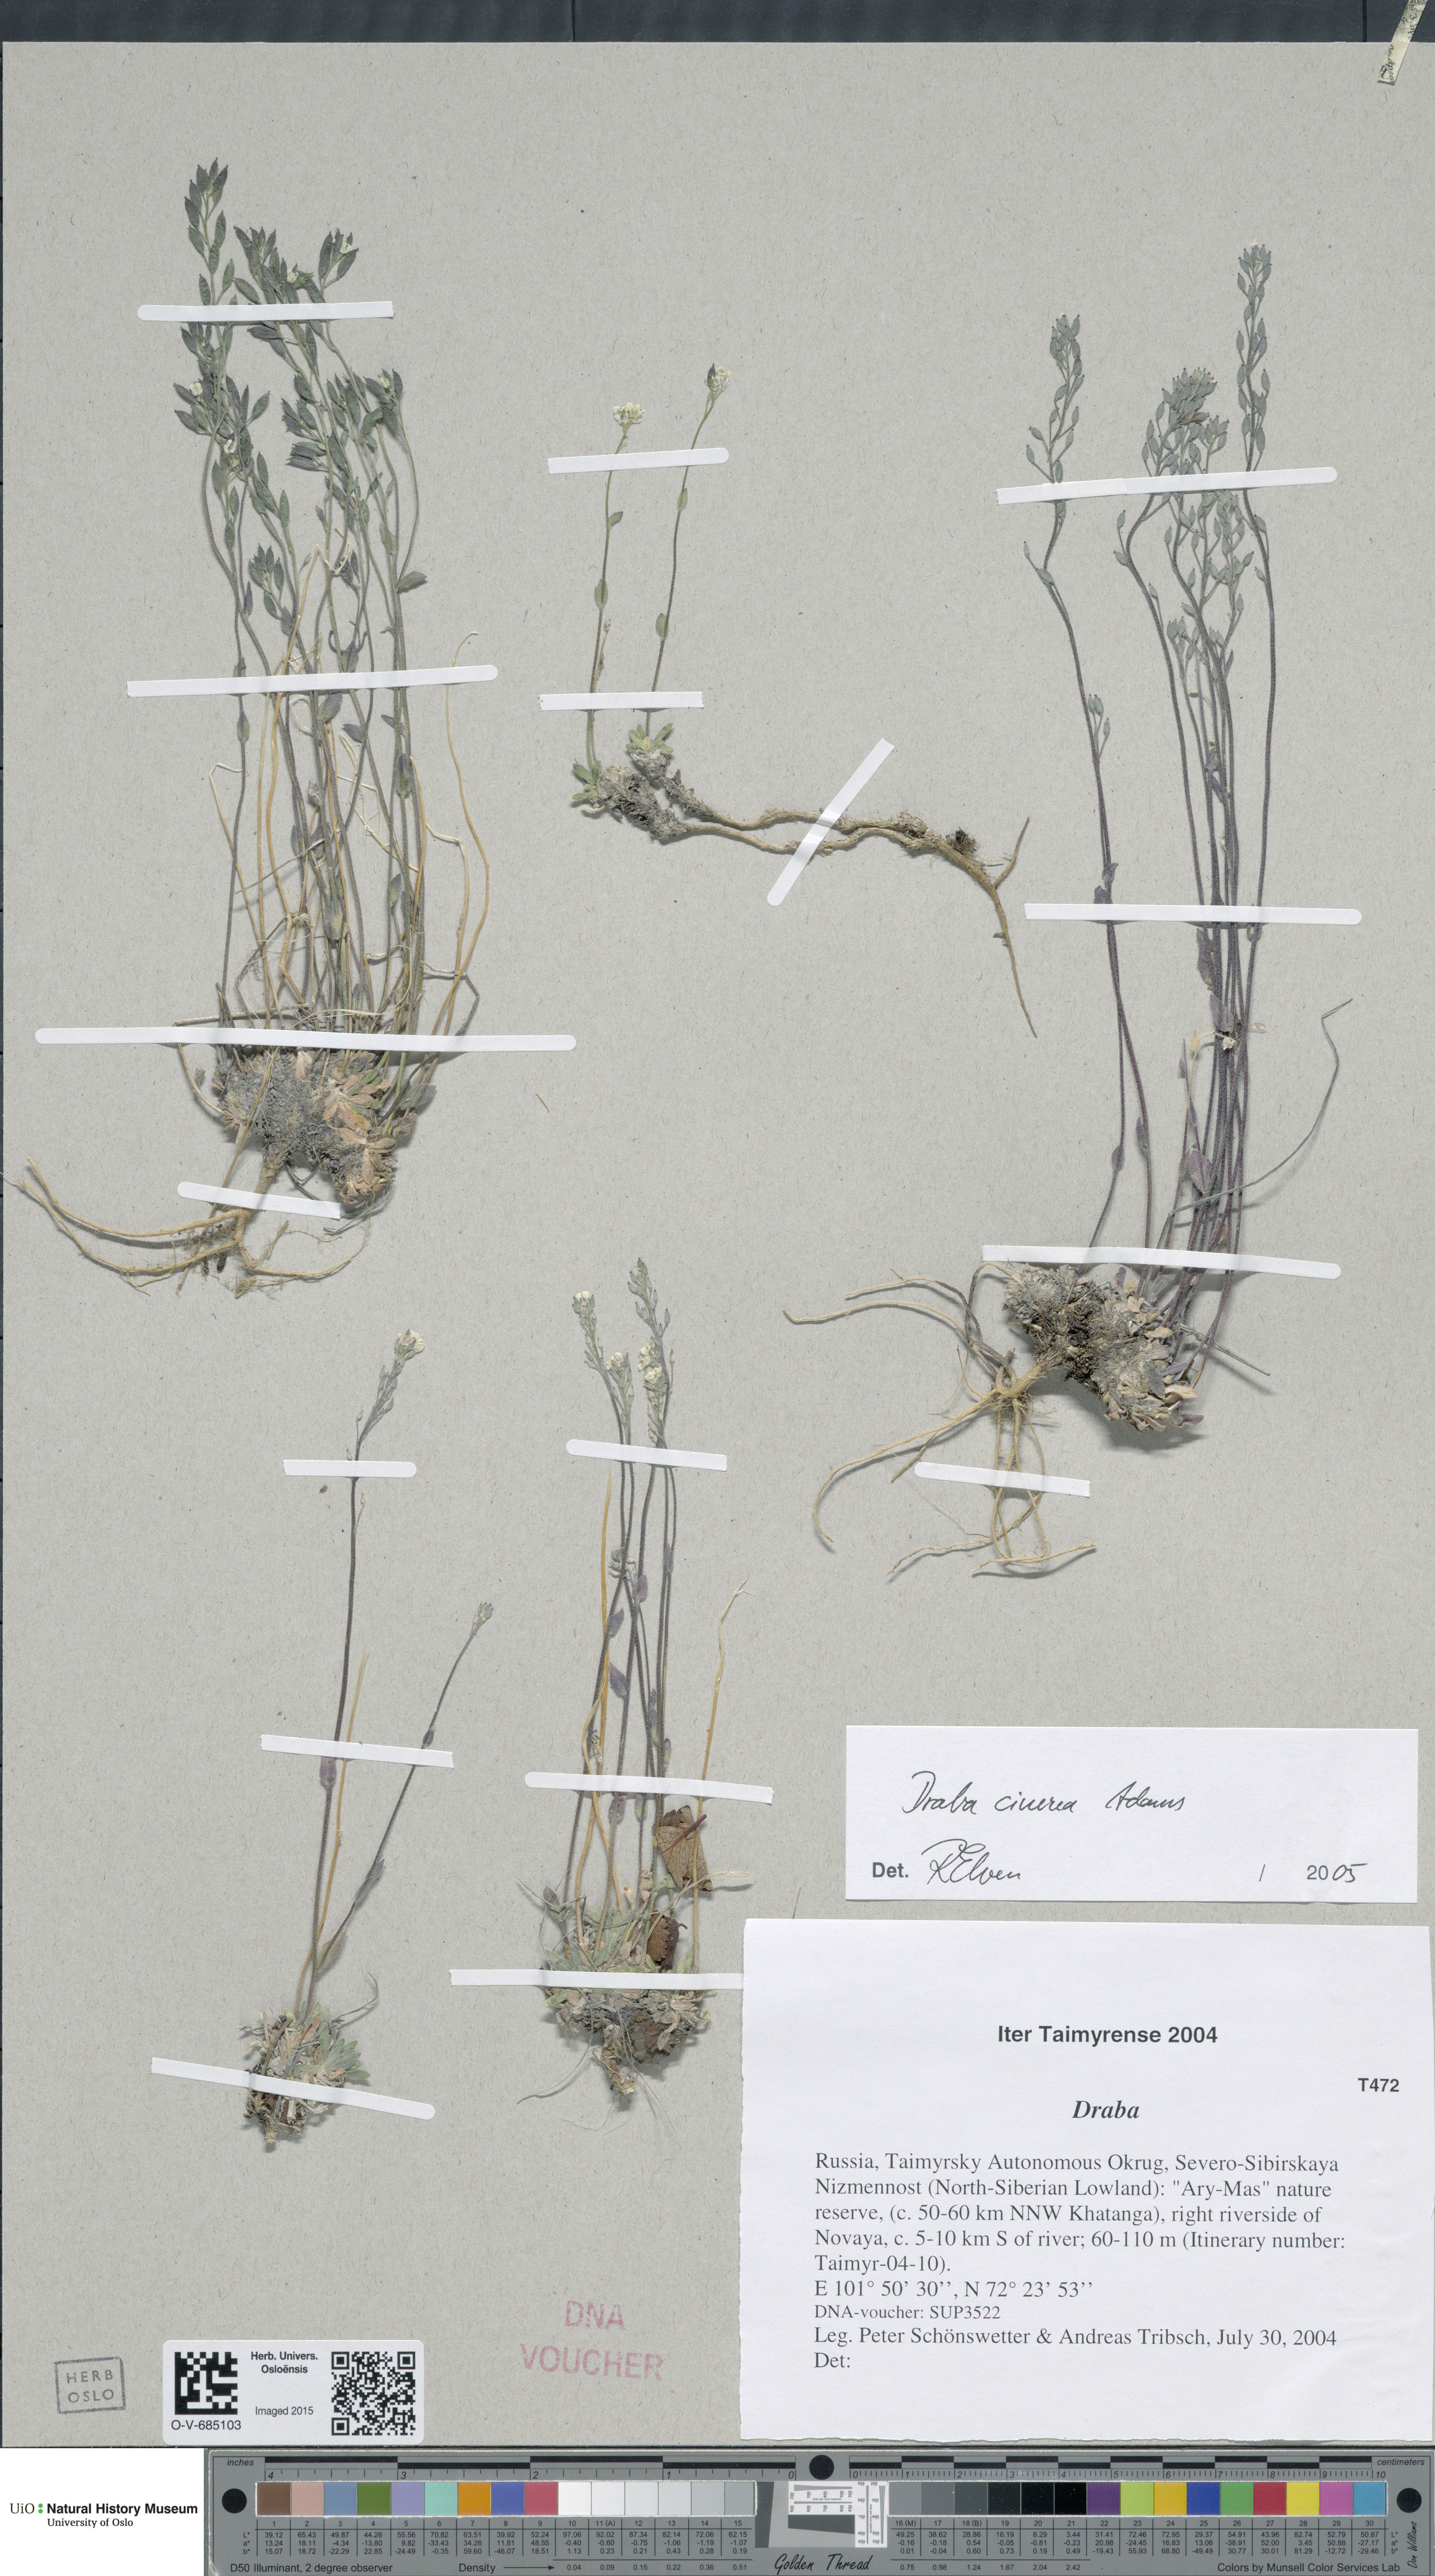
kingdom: Plantae
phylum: Tracheophyta
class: Magnoliopsida
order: Brassicales
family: Brassicaceae
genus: Draba
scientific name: Draba cinerea
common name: Ash-coloured whitlow-grass
